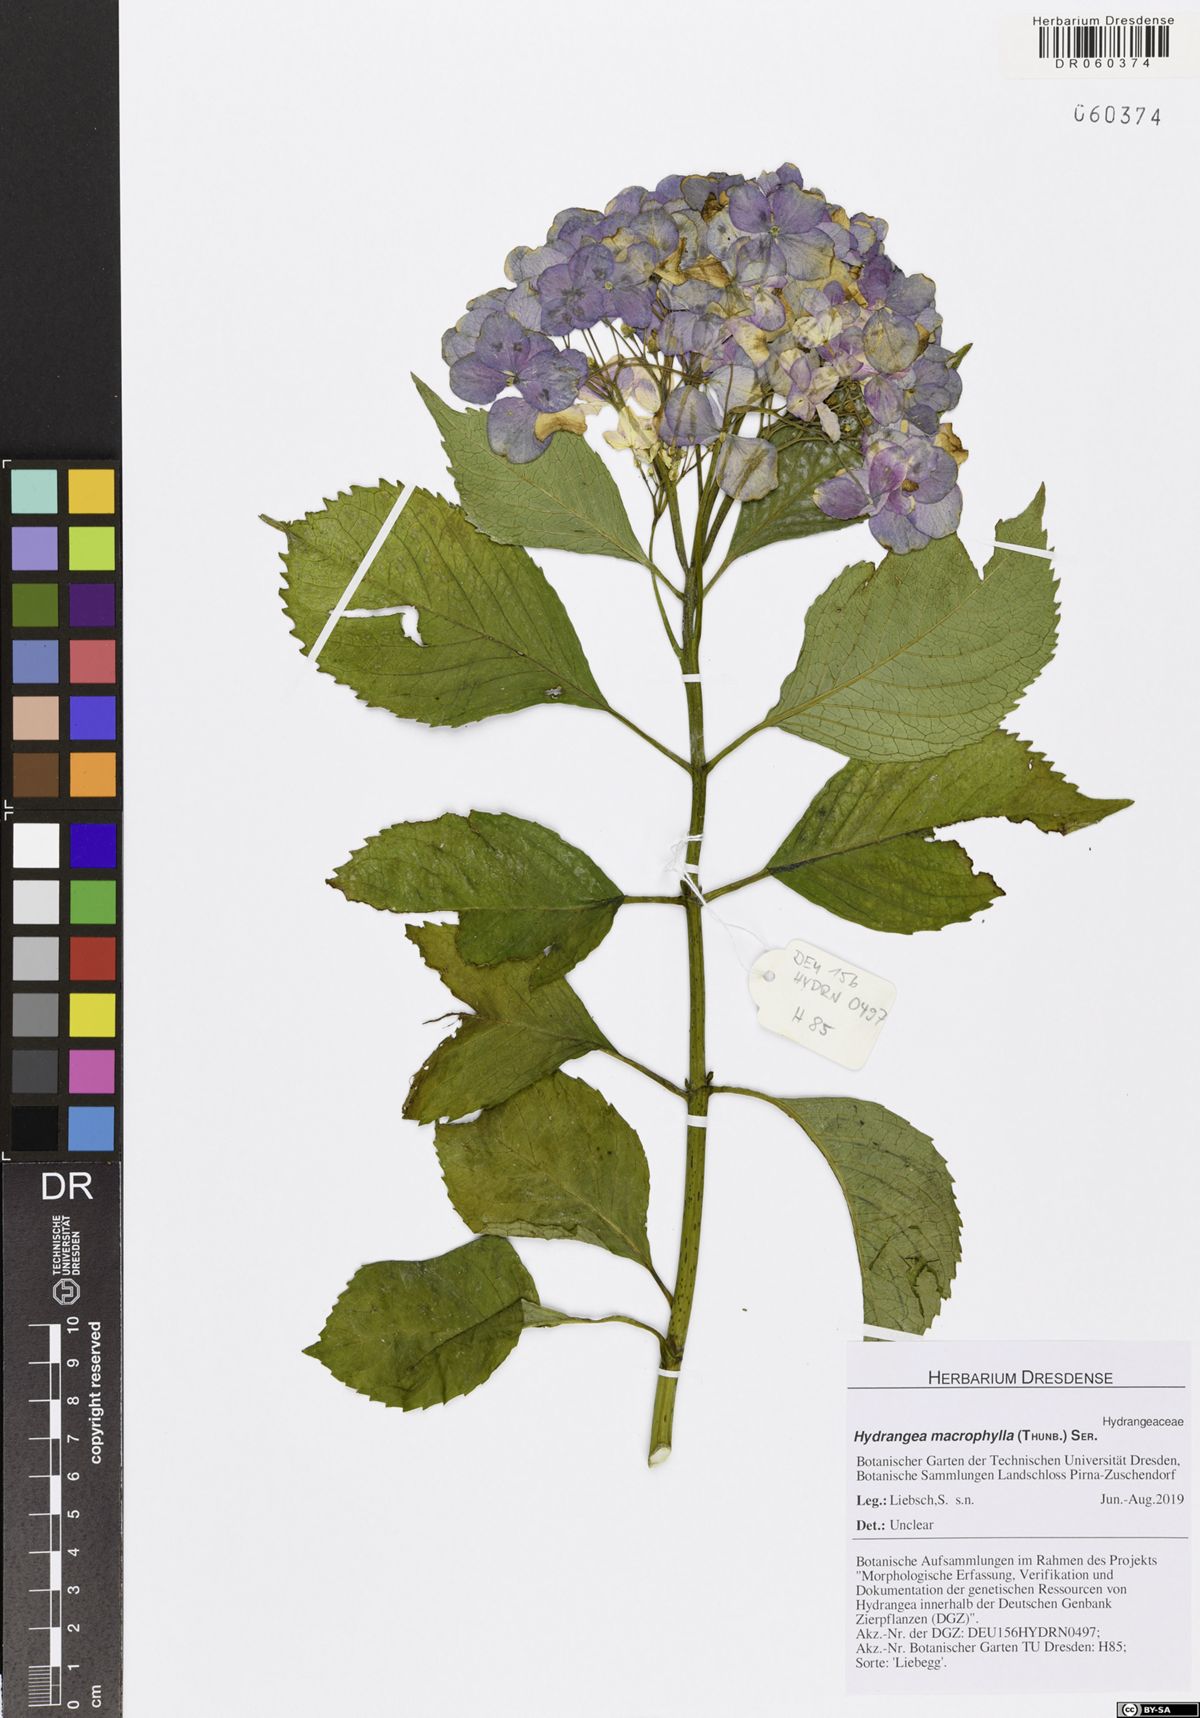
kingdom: Plantae
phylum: Tracheophyta
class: Magnoliopsida
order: Cornales
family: Hydrangeaceae
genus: Hydrangea
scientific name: Hydrangea macrophylla
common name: Hydrangea
